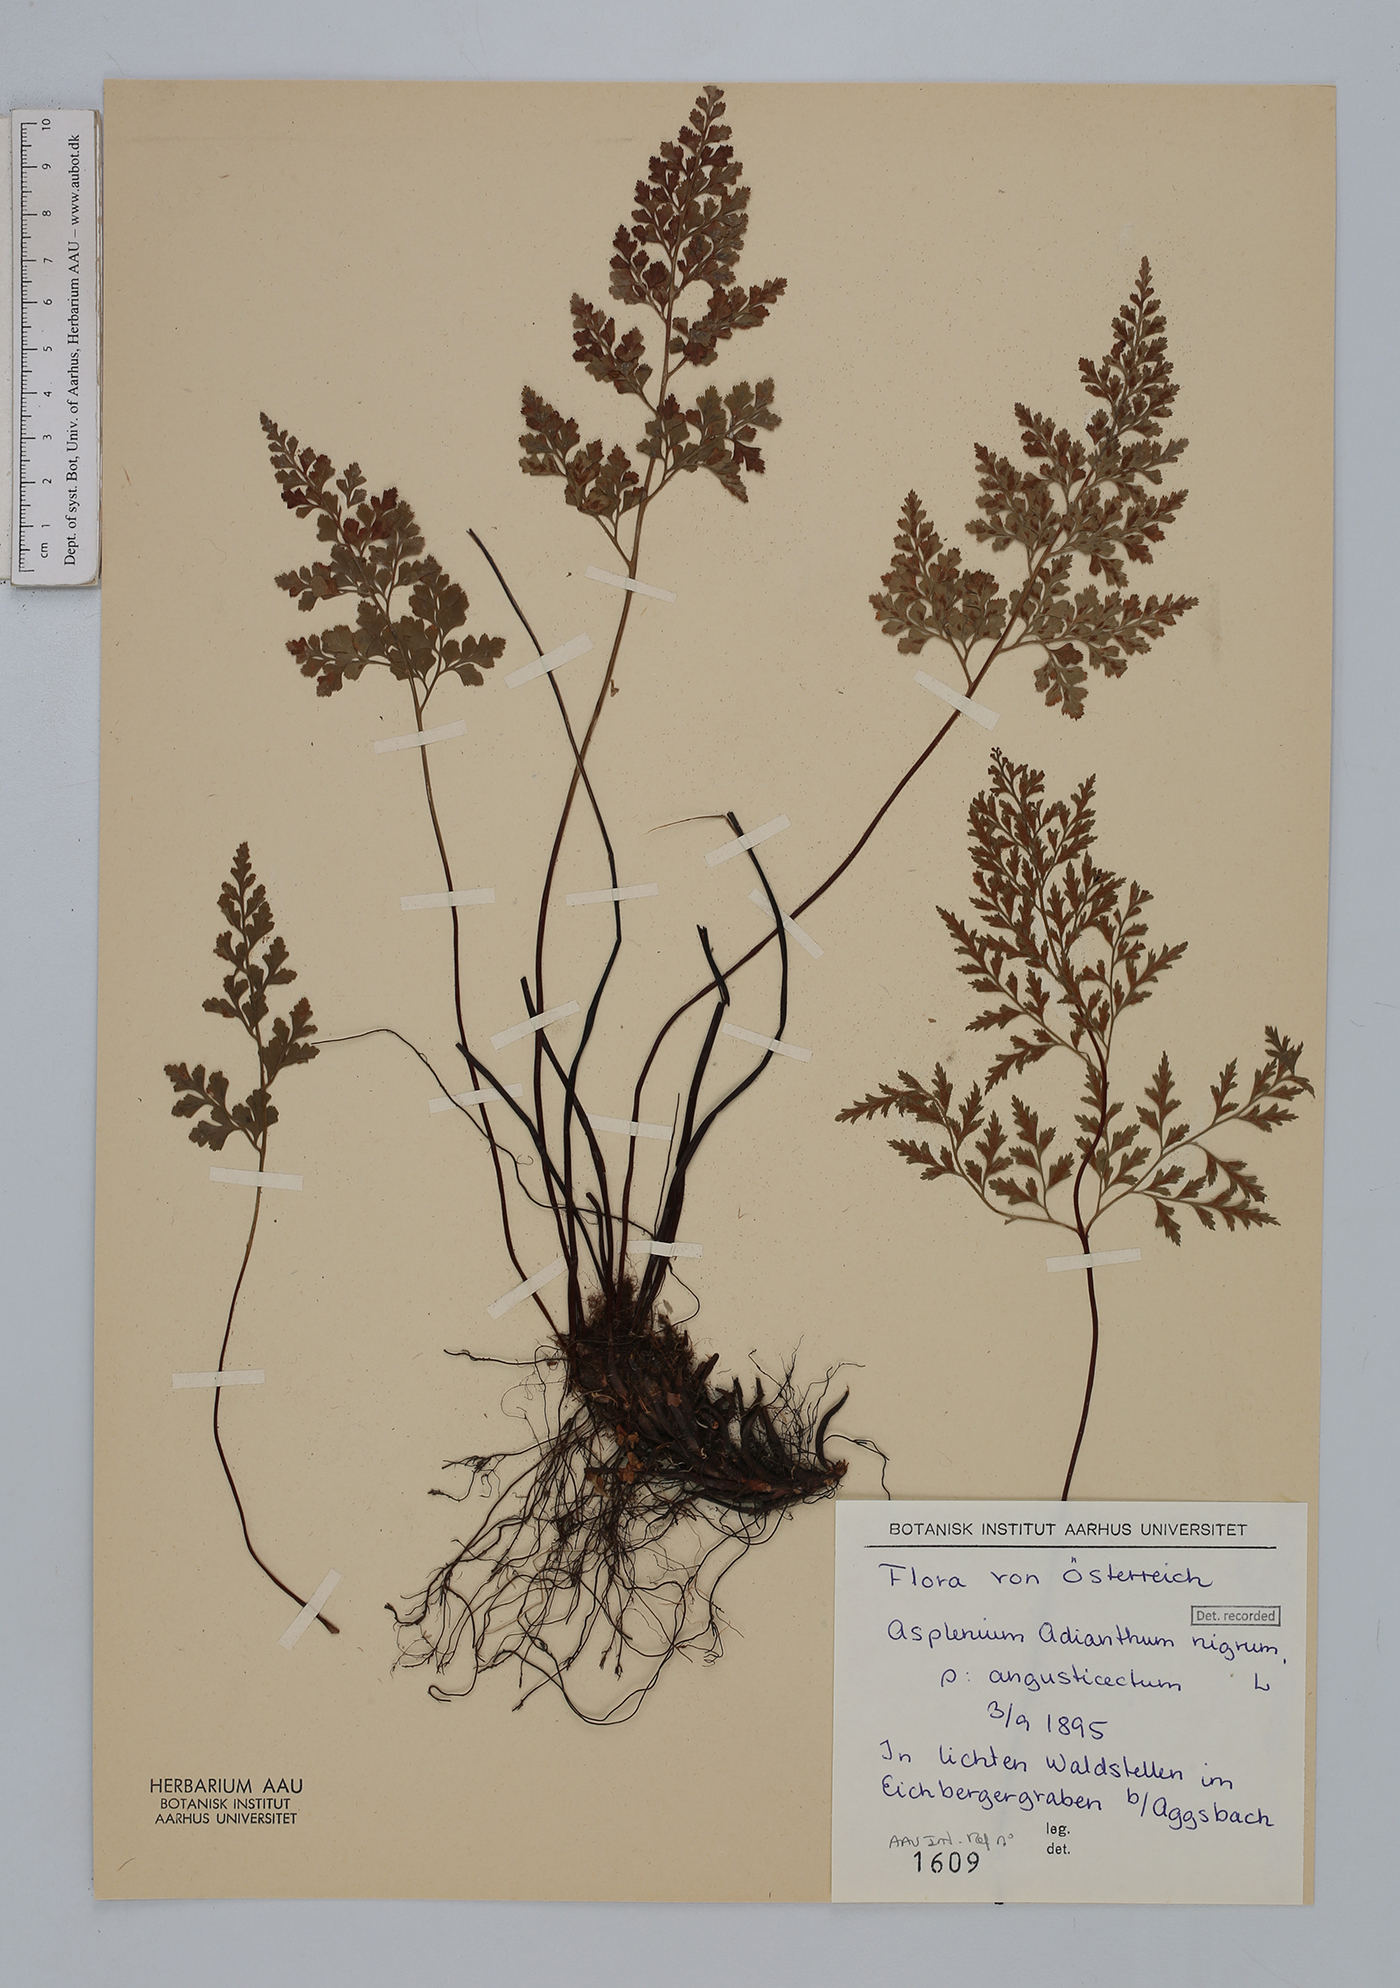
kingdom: Plantae
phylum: Tracheophyta
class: Polypodiopsida
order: Polypodiales
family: Aspleniaceae
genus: Asplenium
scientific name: Asplenium adiantum-nigrum
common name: Black spleenwort
